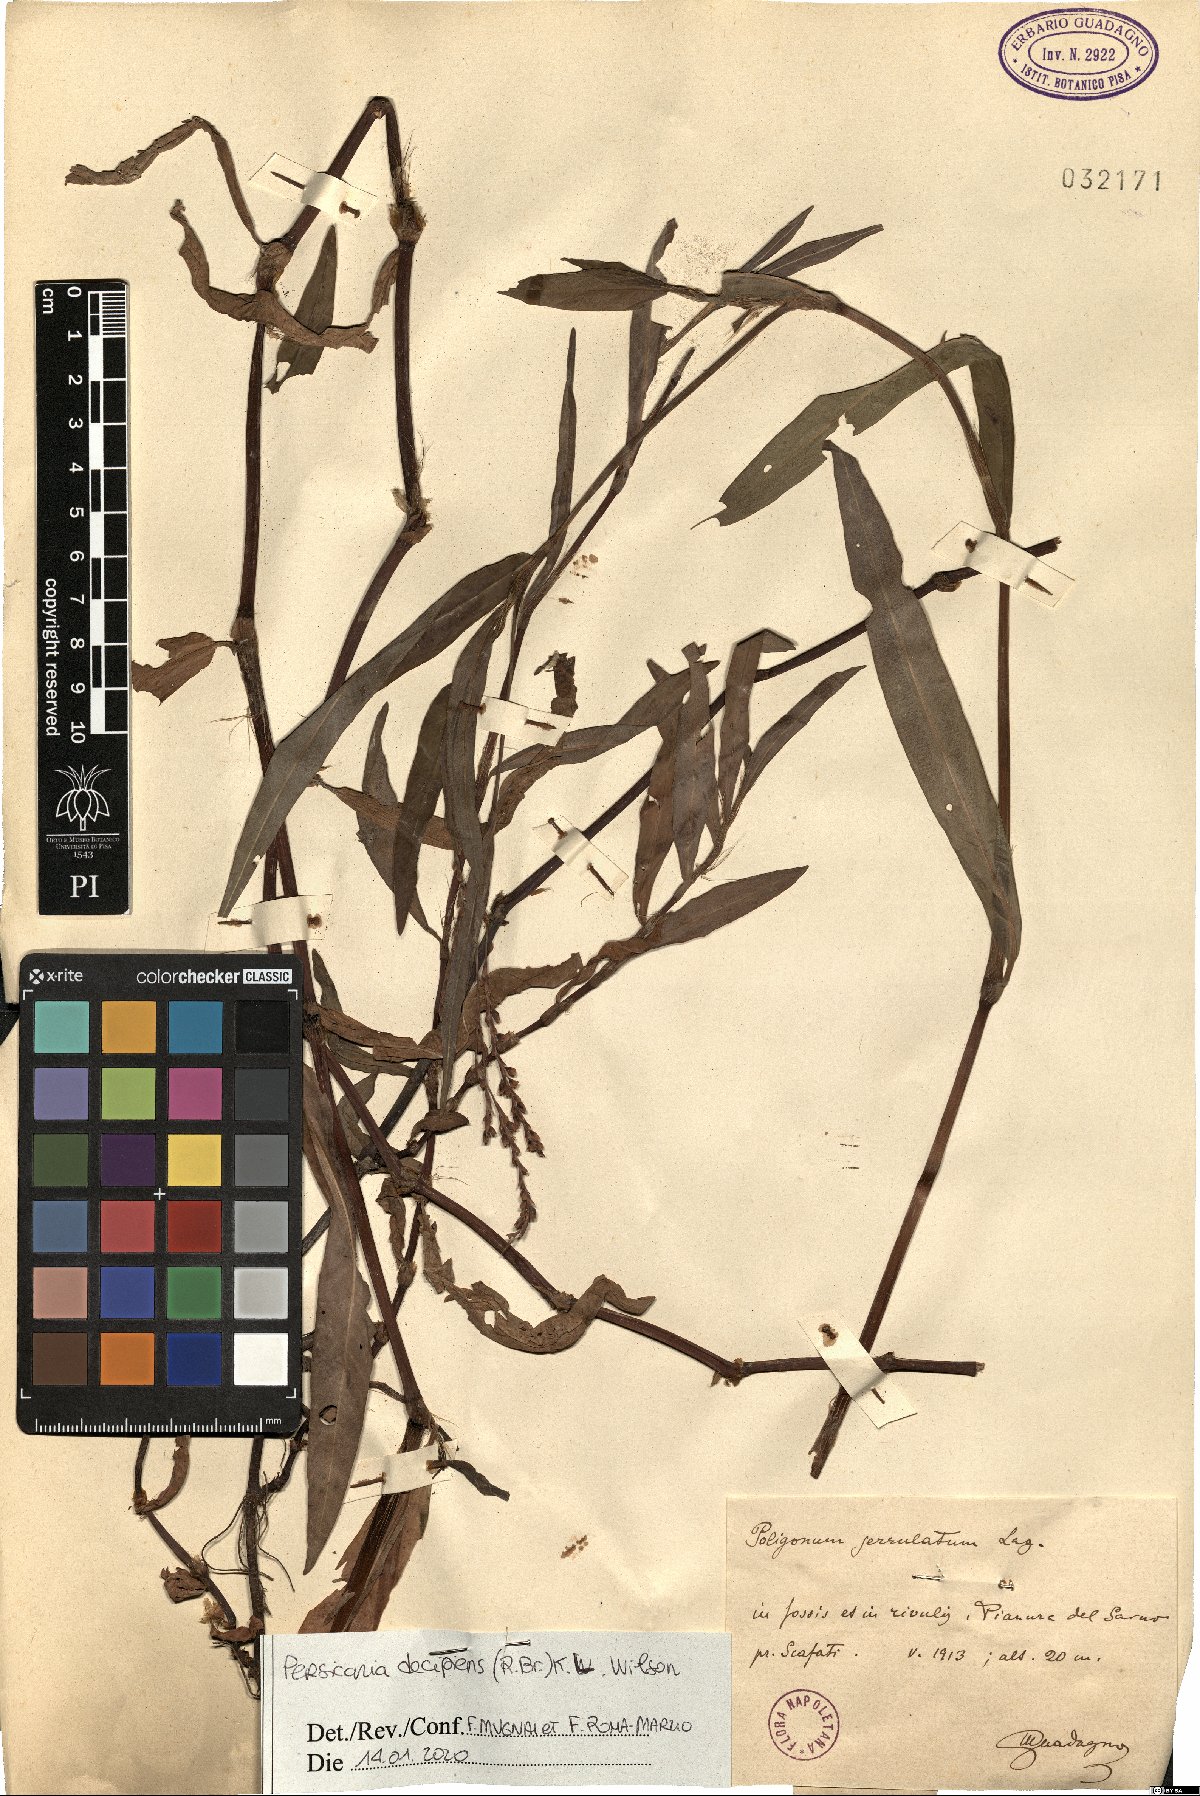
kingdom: Plantae
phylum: Tracheophyta
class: Magnoliopsida
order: Caryophyllales
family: Polygonaceae
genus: Persicaria
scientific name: Persicaria decipiens
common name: Willow-weed
